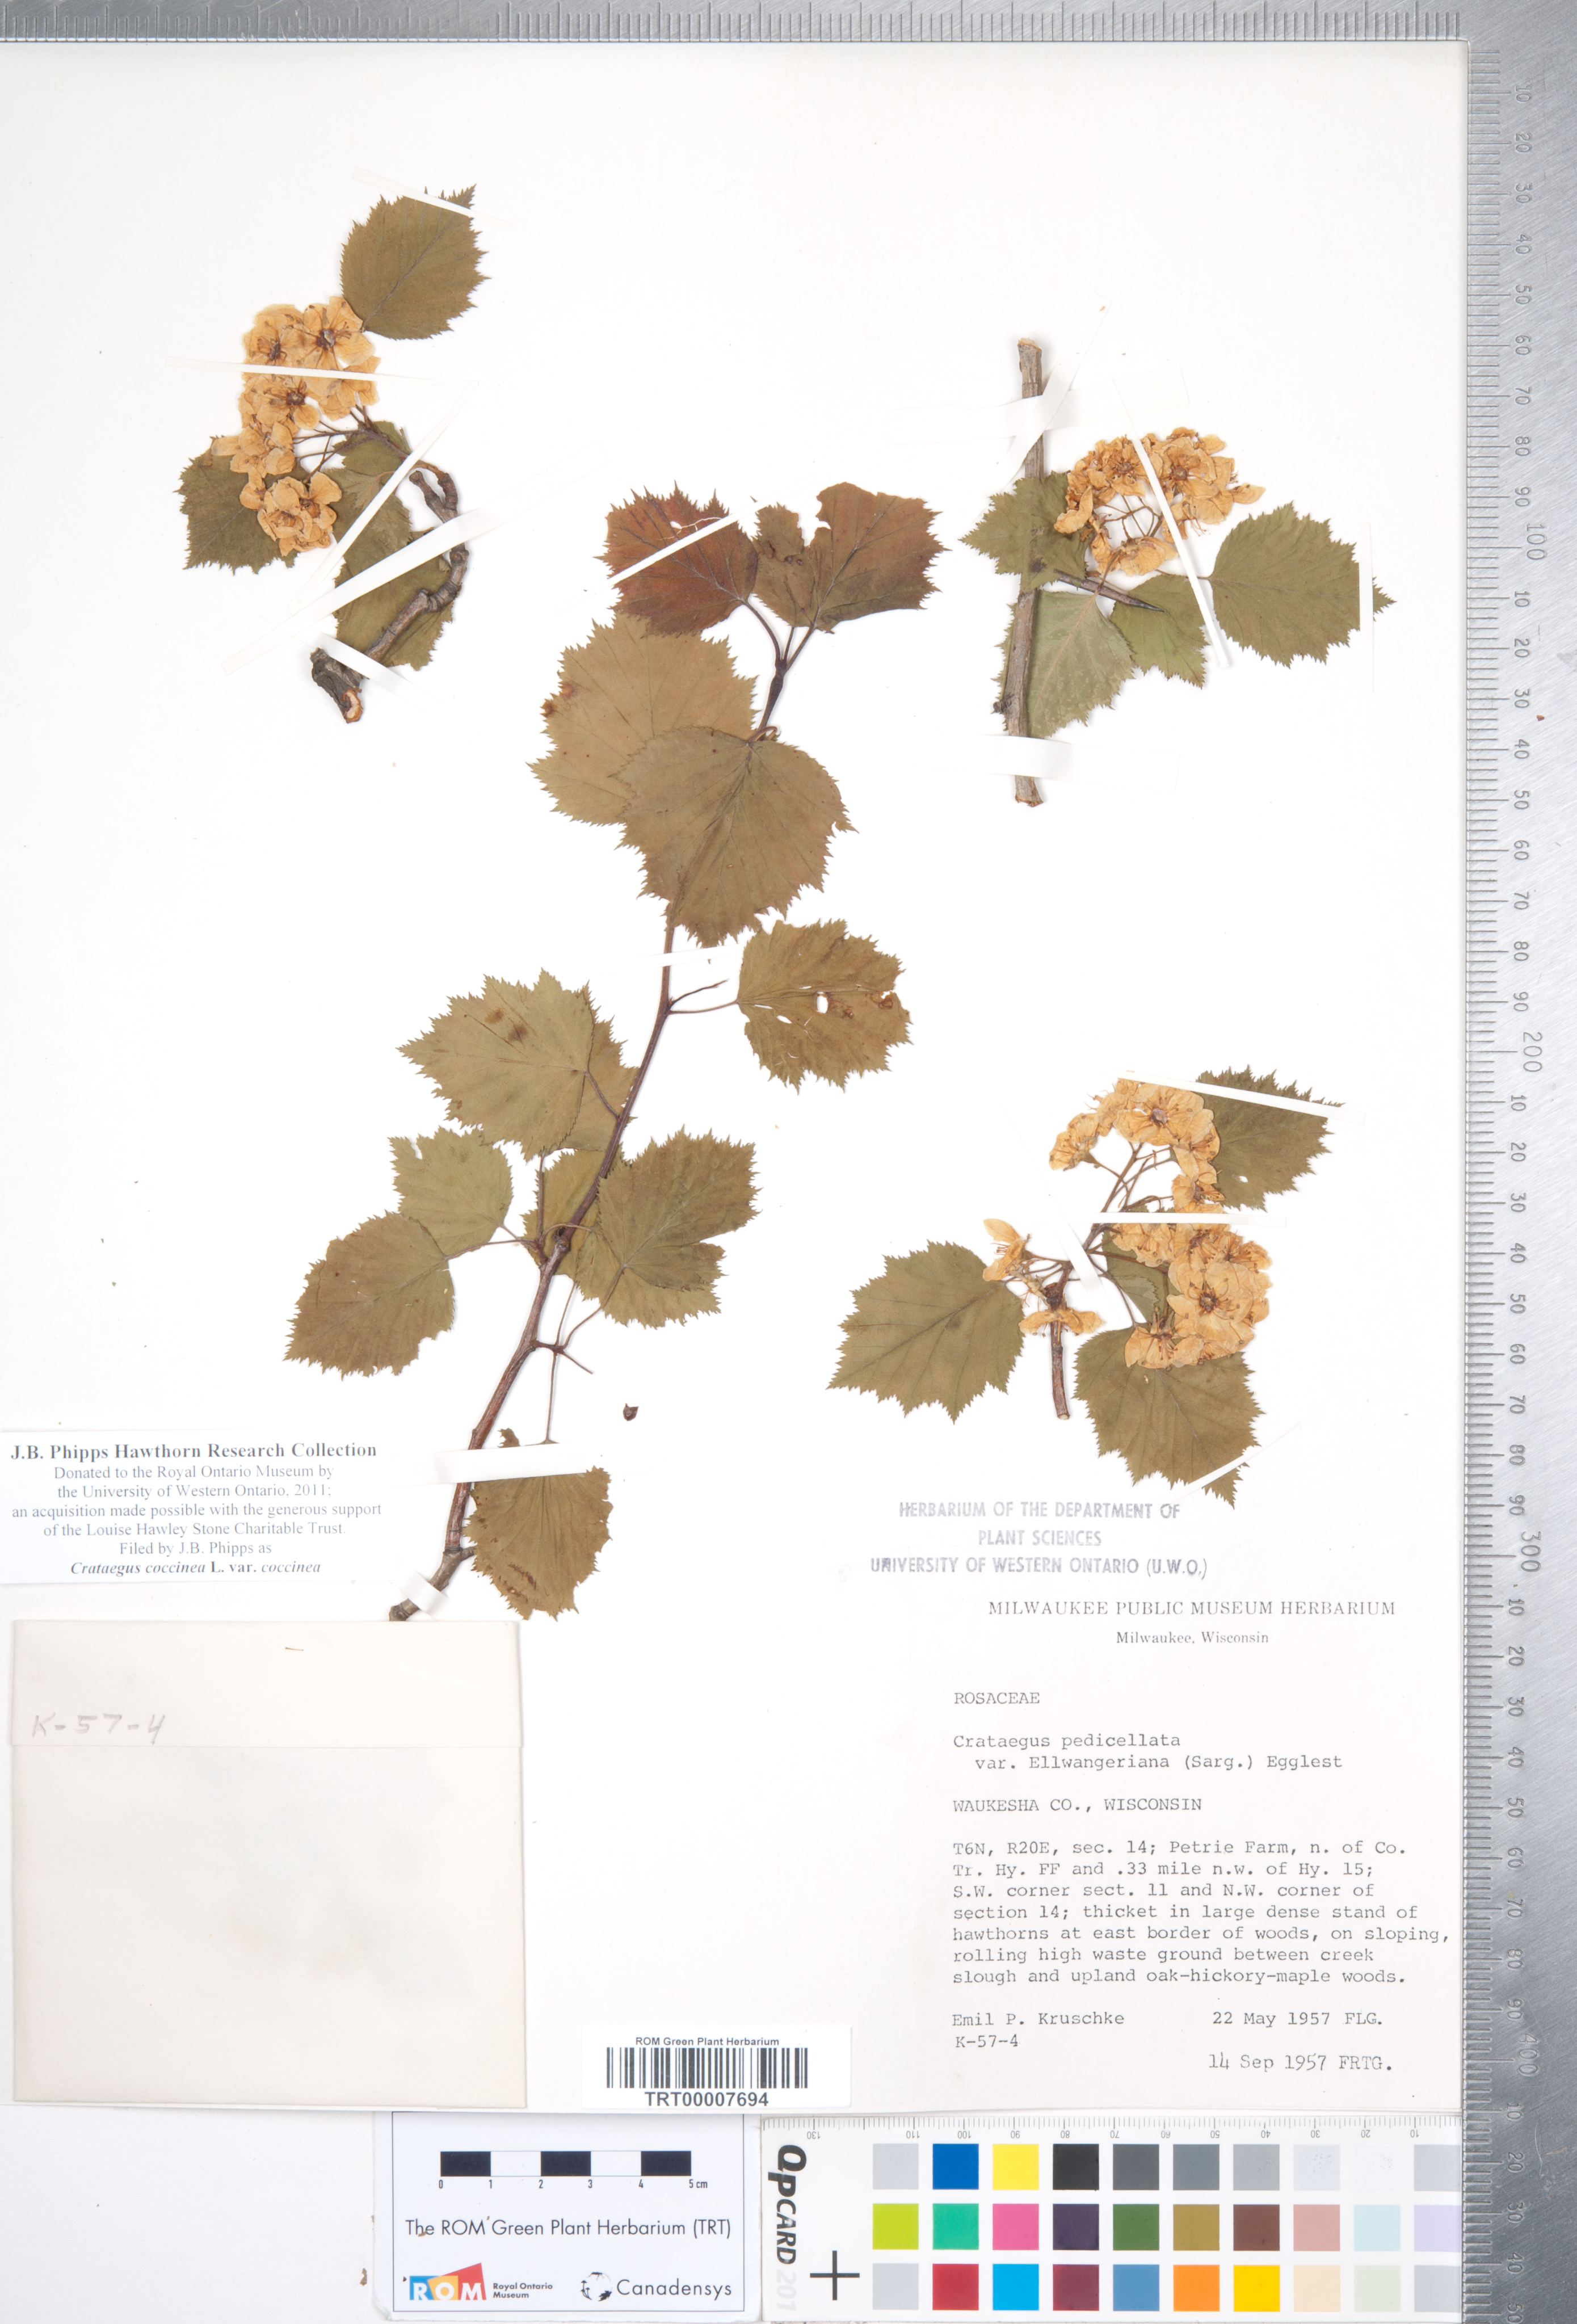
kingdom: Plantae
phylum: Tracheophyta
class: Magnoliopsida
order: Rosales
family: Rosaceae
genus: Crataegus
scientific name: Crataegus coccinea
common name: Scarlet hawthorn
